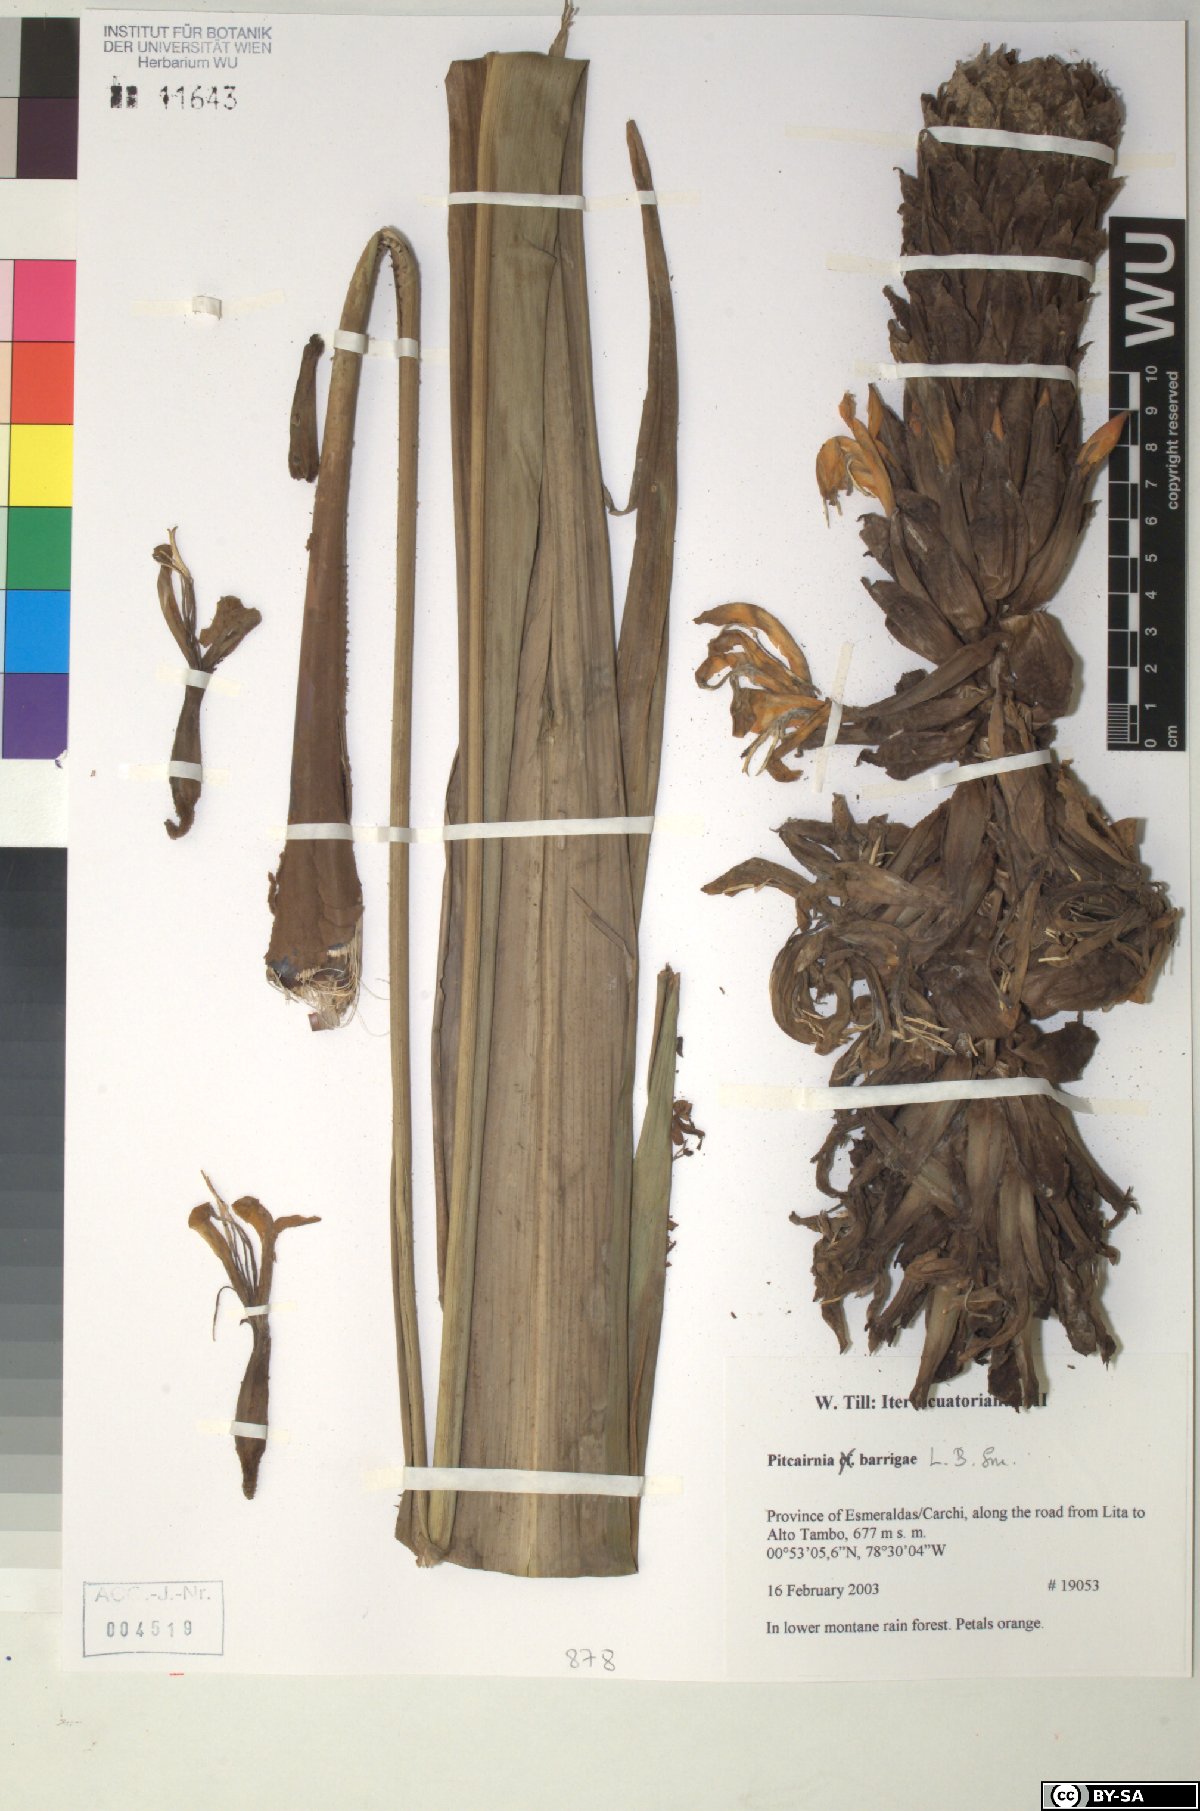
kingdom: Plantae
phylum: Tracheophyta
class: Liliopsida
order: Poales
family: Bromeliaceae
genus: Pitcairnia
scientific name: Pitcairnia barrigae
